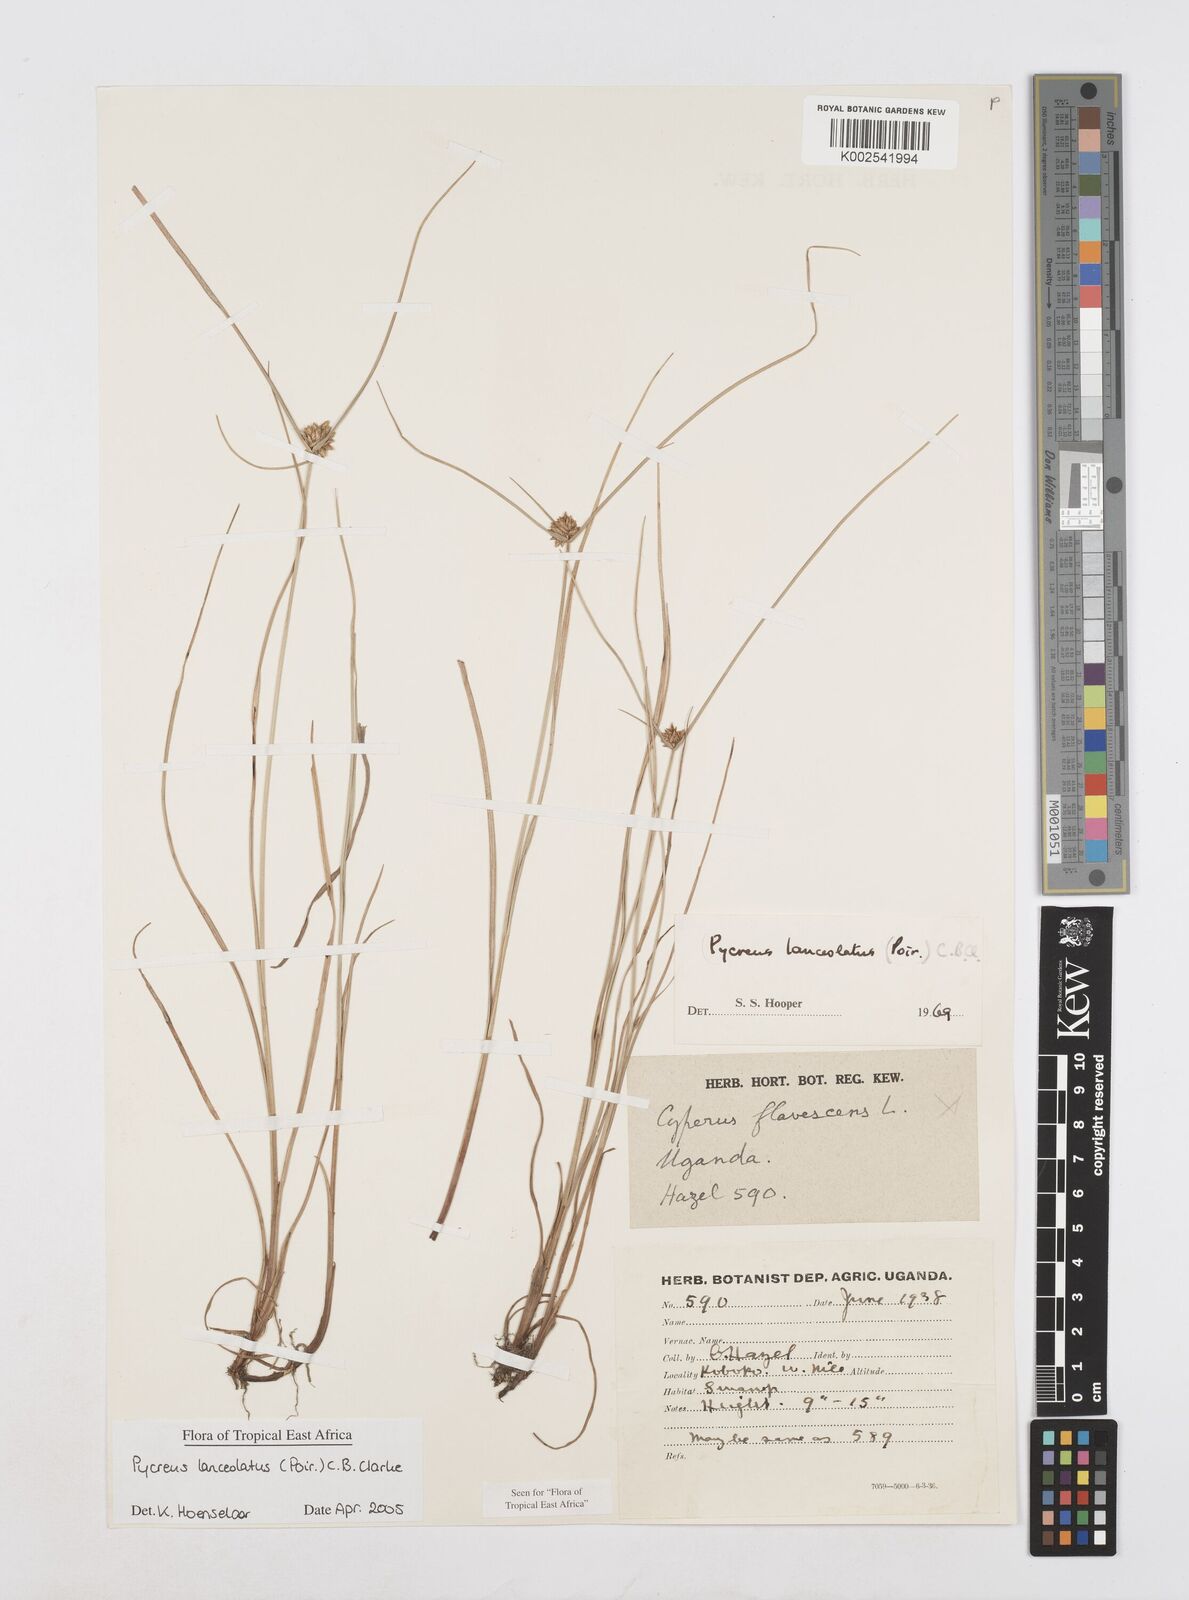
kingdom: Plantae
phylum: Tracheophyta
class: Liliopsida
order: Poales
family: Cyperaceae
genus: Cyperus
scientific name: Cyperus lanceolatus
